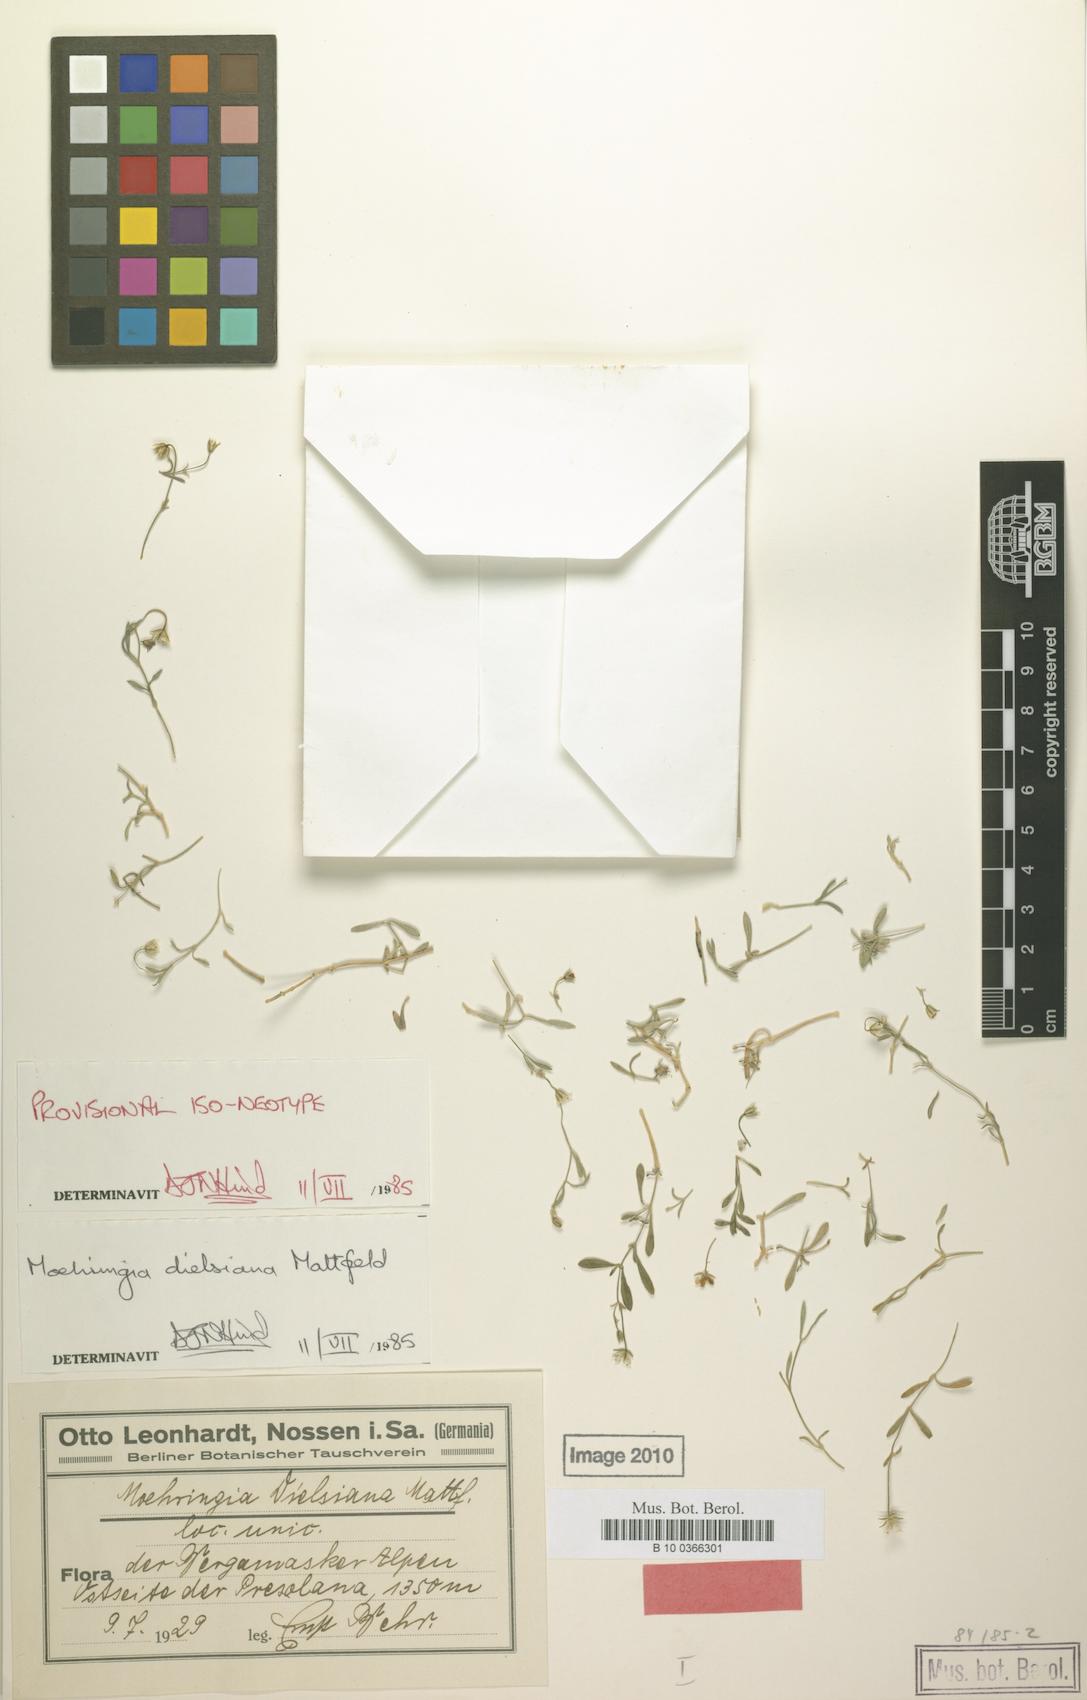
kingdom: Plantae
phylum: Tracheophyta
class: Magnoliopsida
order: Caryophyllales
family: Caryophyllaceae
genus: Moehringia
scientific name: Moehringia dielsiana
